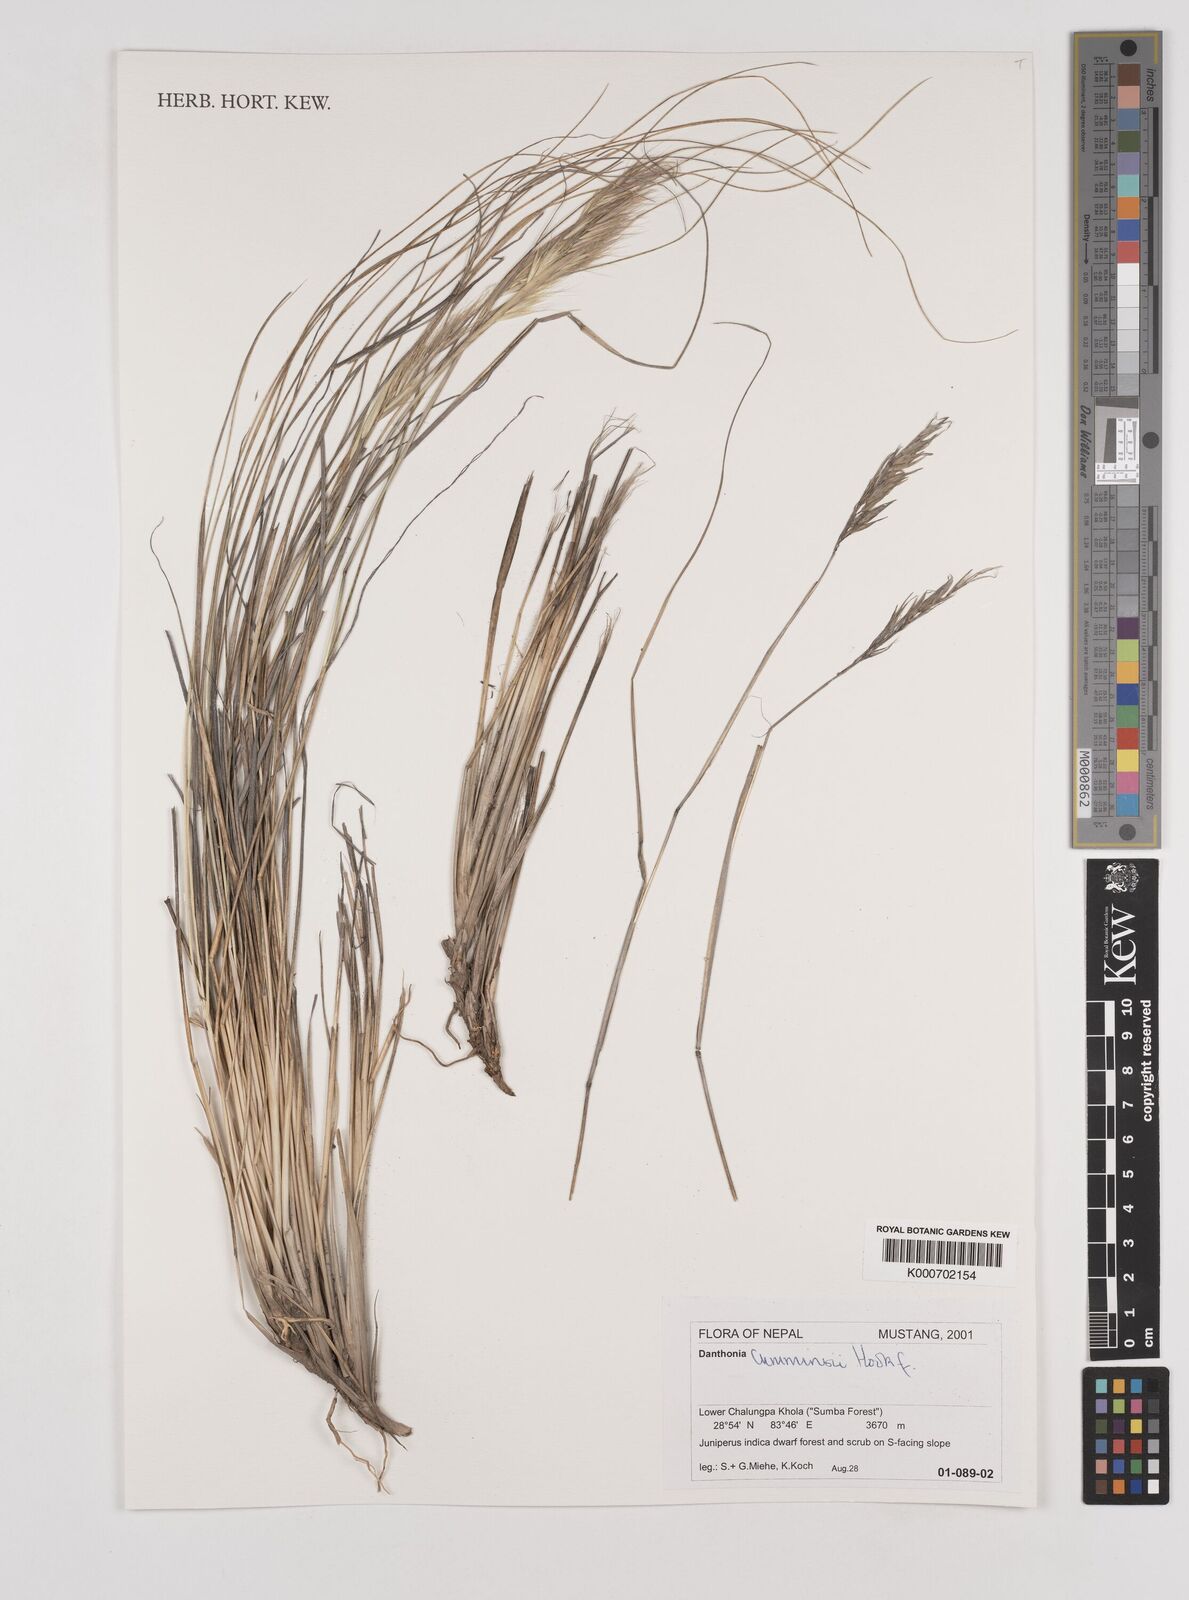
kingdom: Plantae
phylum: Tracheophyta
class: Liliopsida
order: Poales
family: Poaceae
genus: Tenaxia
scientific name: Tenaxia cumminsii
